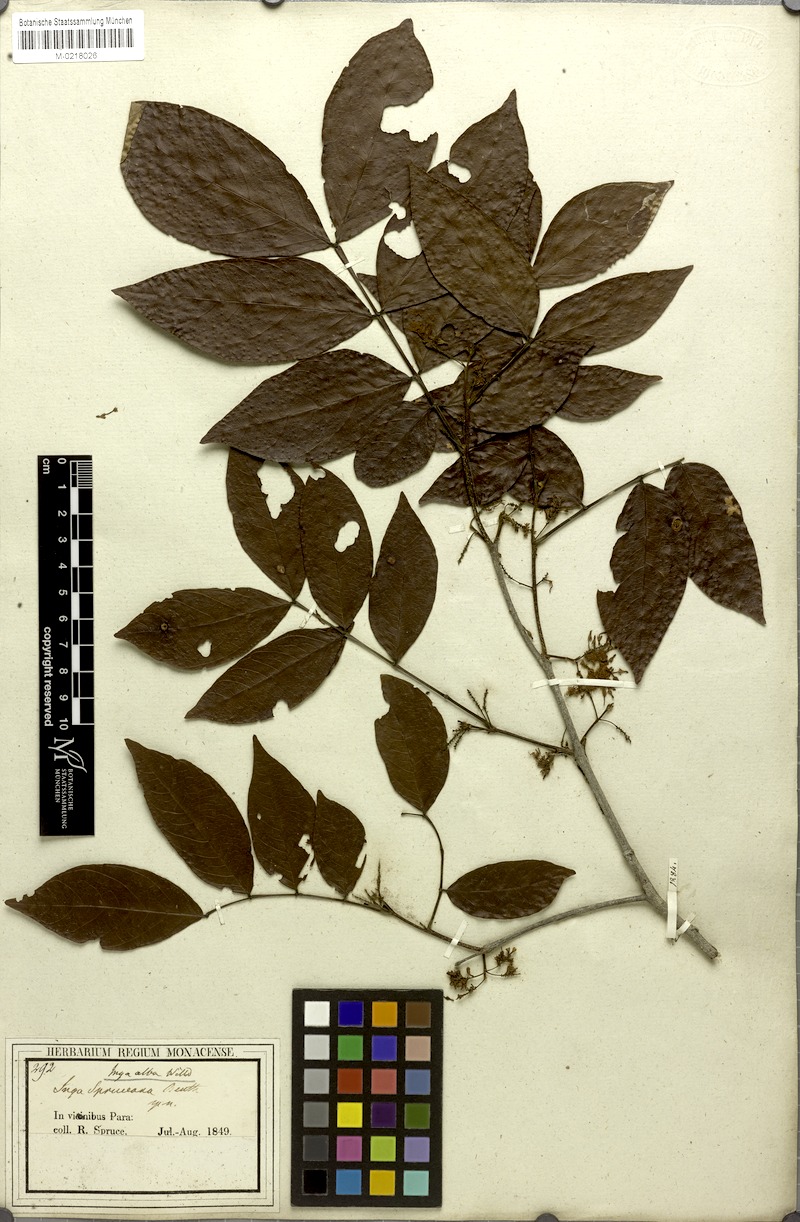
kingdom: Plantae
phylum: Tracheophyta
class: Magnoliopsida
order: Fabales
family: Fabaceae
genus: Inga
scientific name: Inga alba
